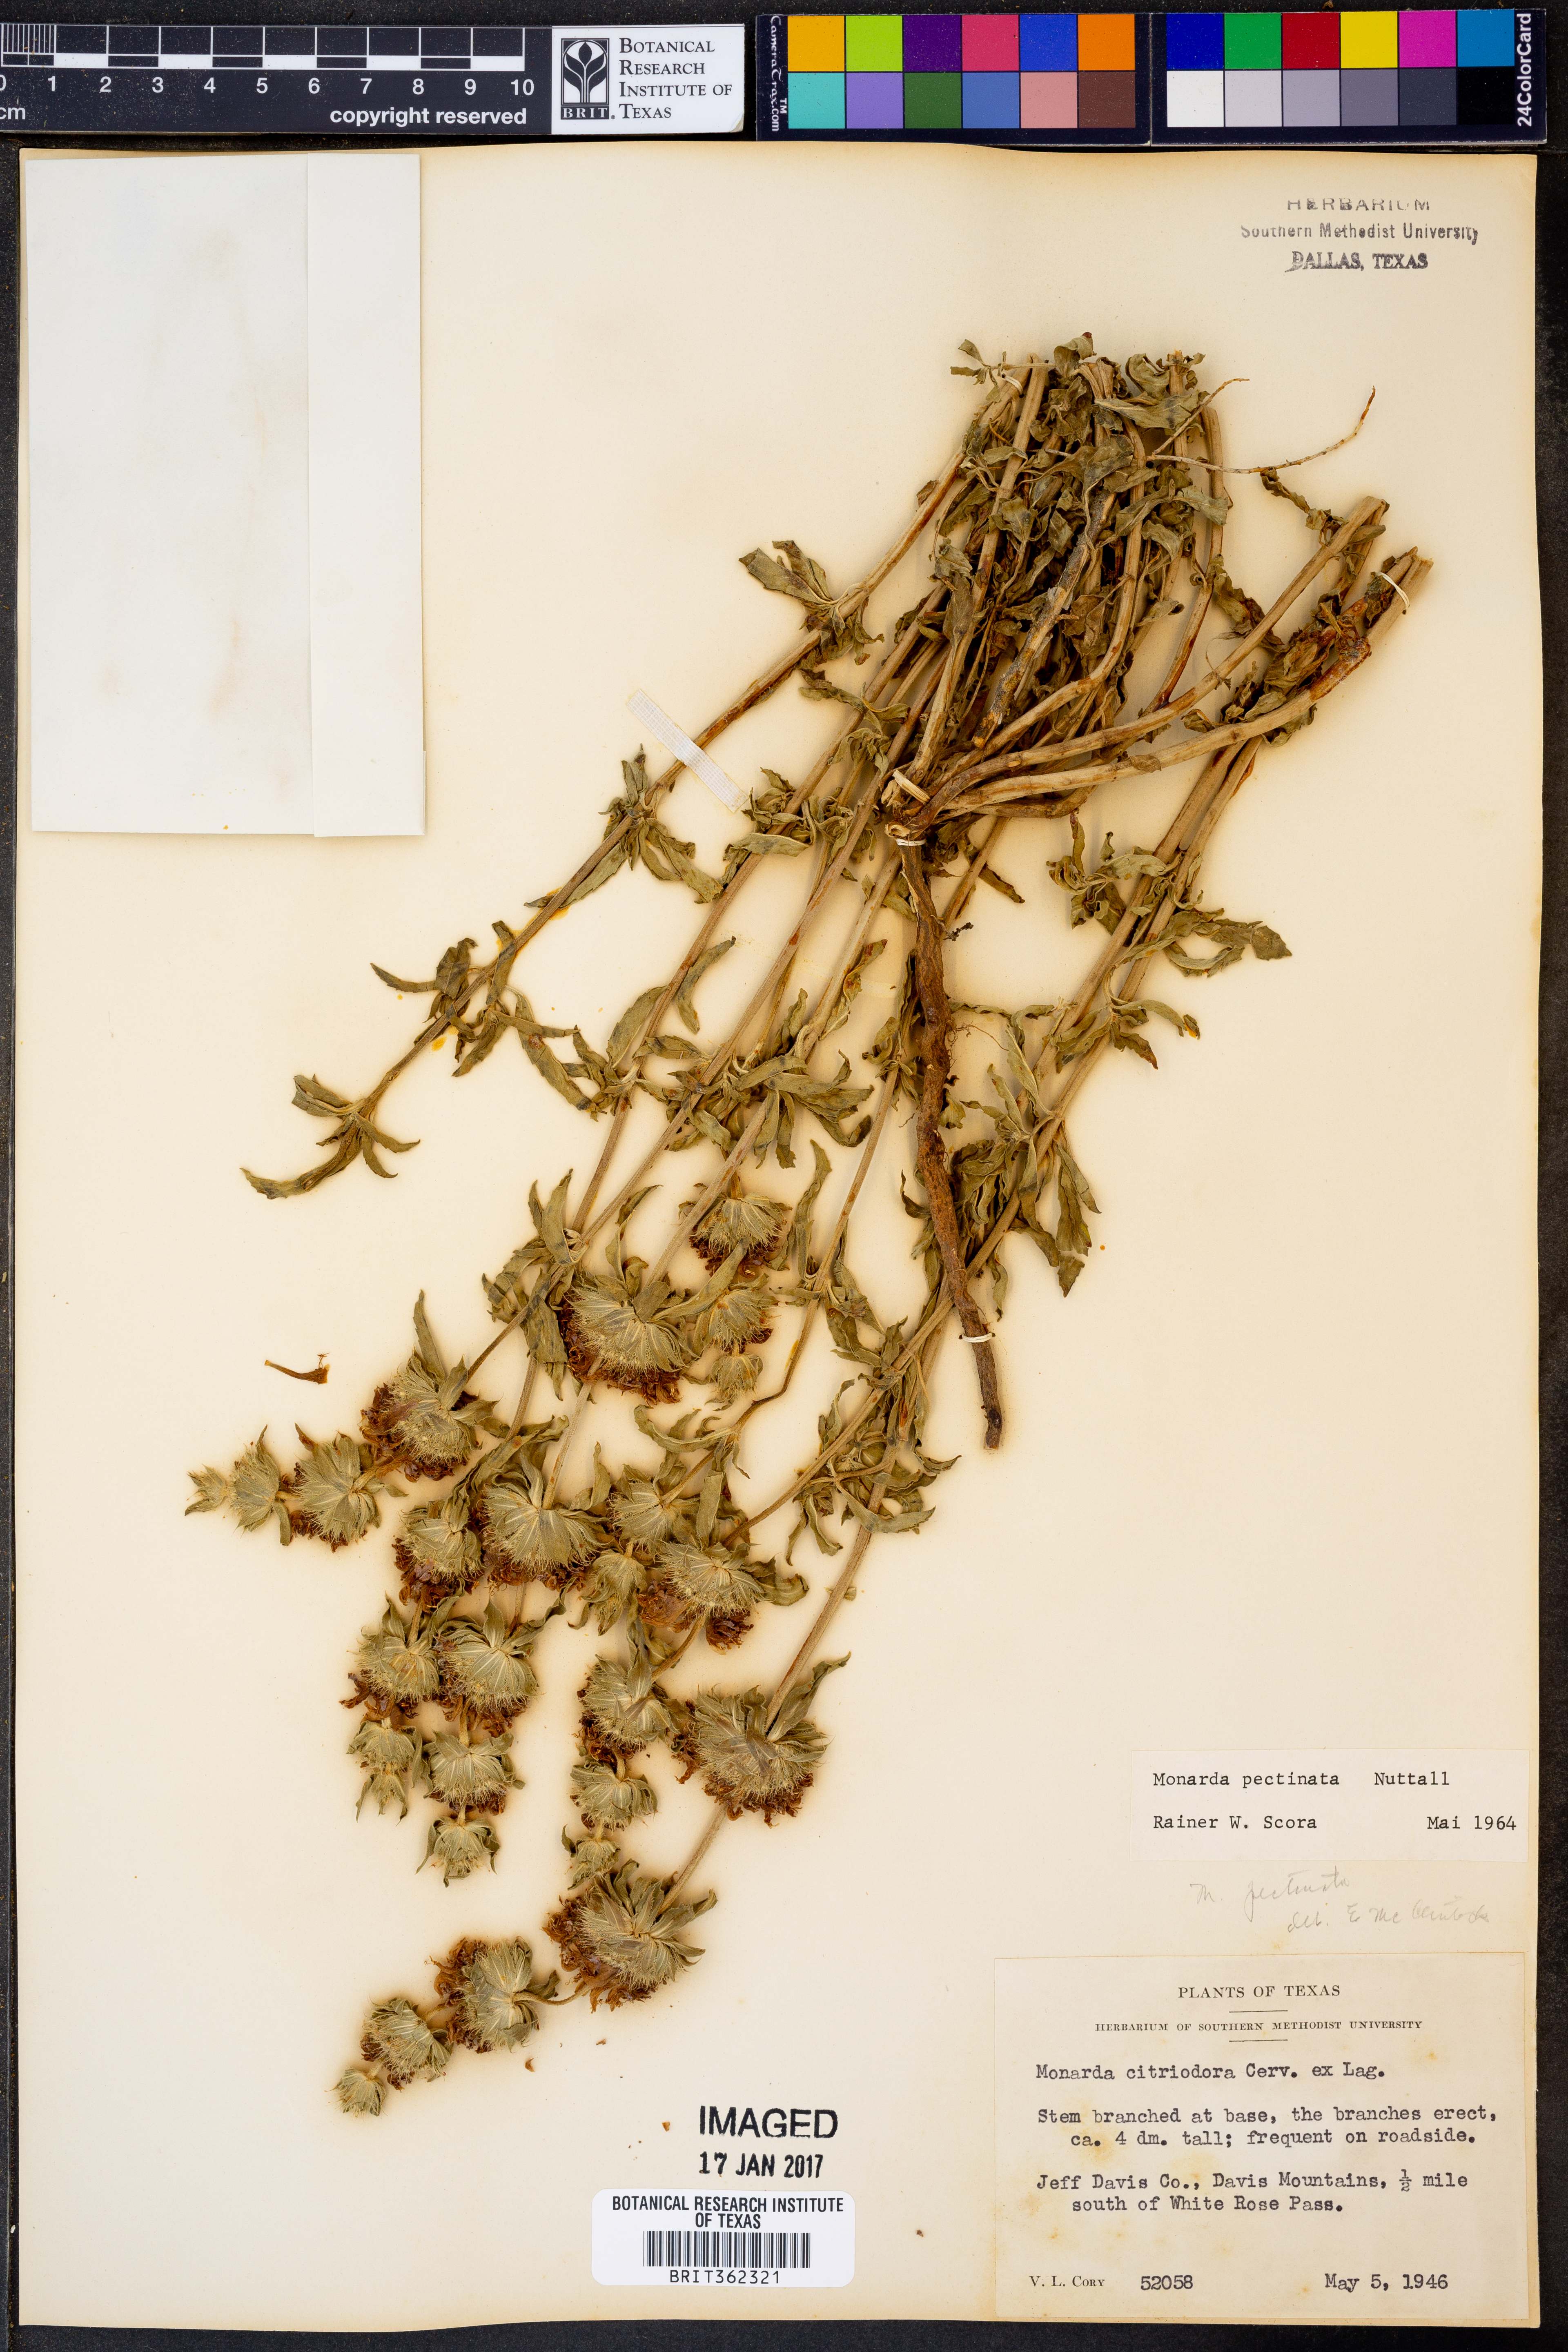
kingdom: Plantae
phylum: Tracheophyta
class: Magnoliopsida
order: Lamiales
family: Lamiaceae
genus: Monarda
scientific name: Monarda pectinata
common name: Plains beebalm
